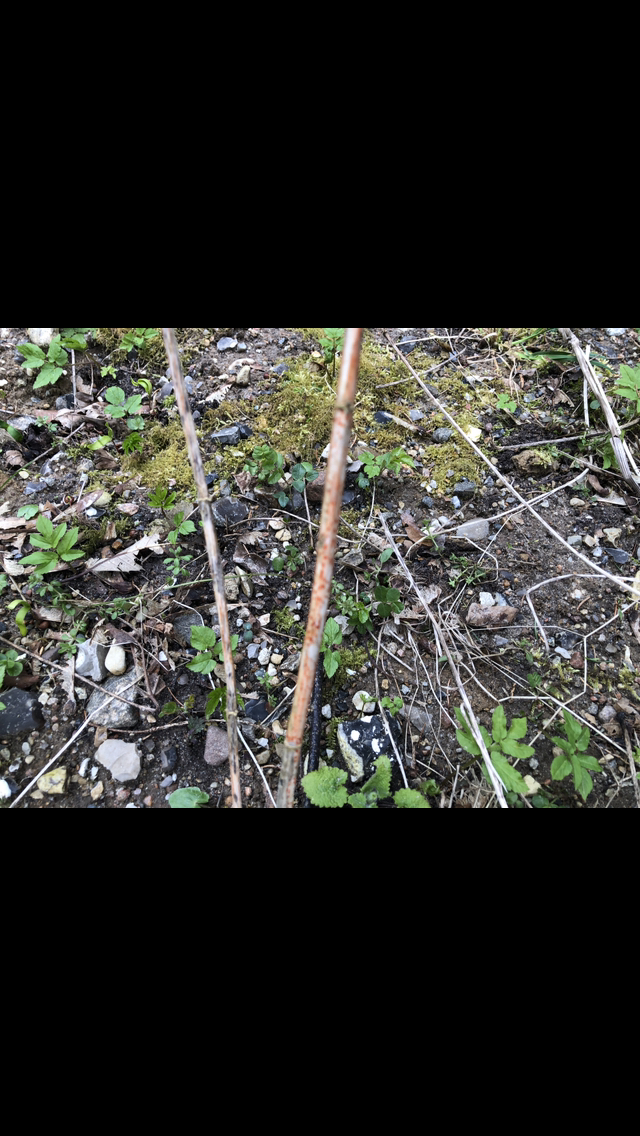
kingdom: Fungi
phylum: Ascomycota
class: Leotiomycetes
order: Helotiales
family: Calloriaceae
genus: Calloria
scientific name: Calloria urticae
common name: nælde-orangeskive
